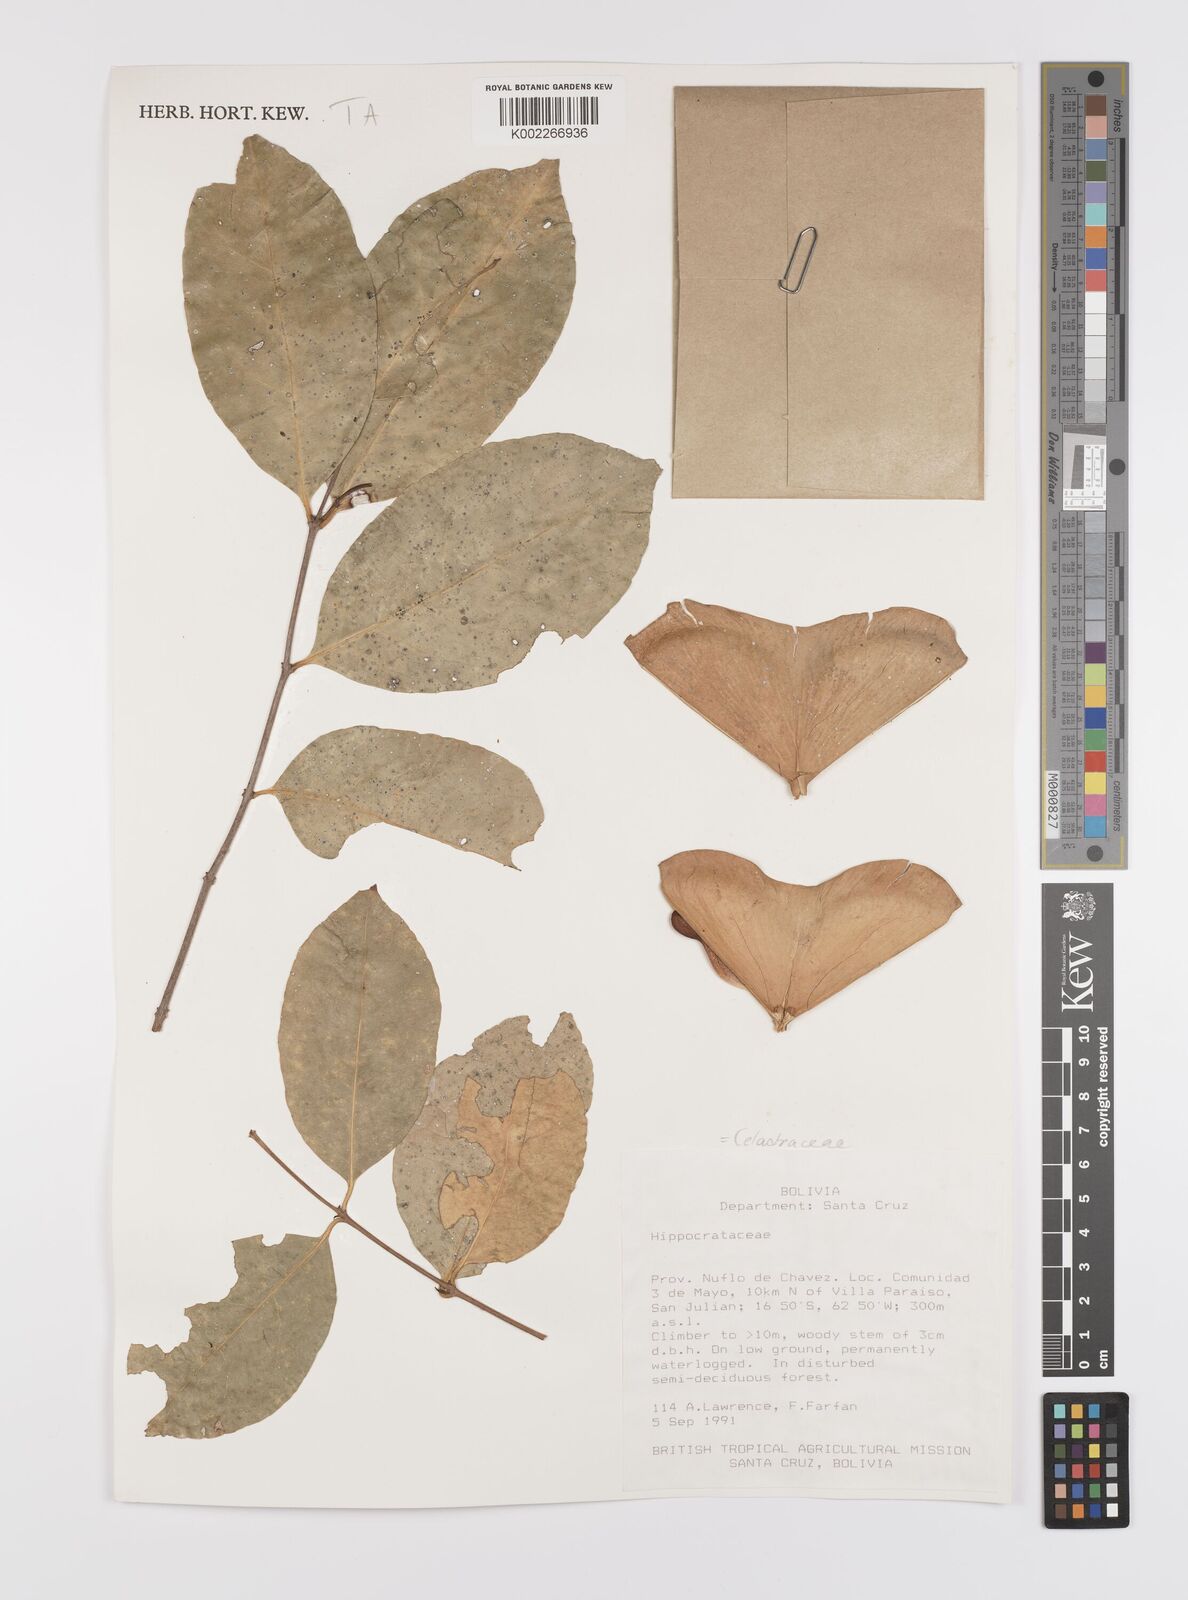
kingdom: Plantae
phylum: Tracheophyta
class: Magnoliopsida
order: Celastrales
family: Celastraceae
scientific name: Celastraceae
